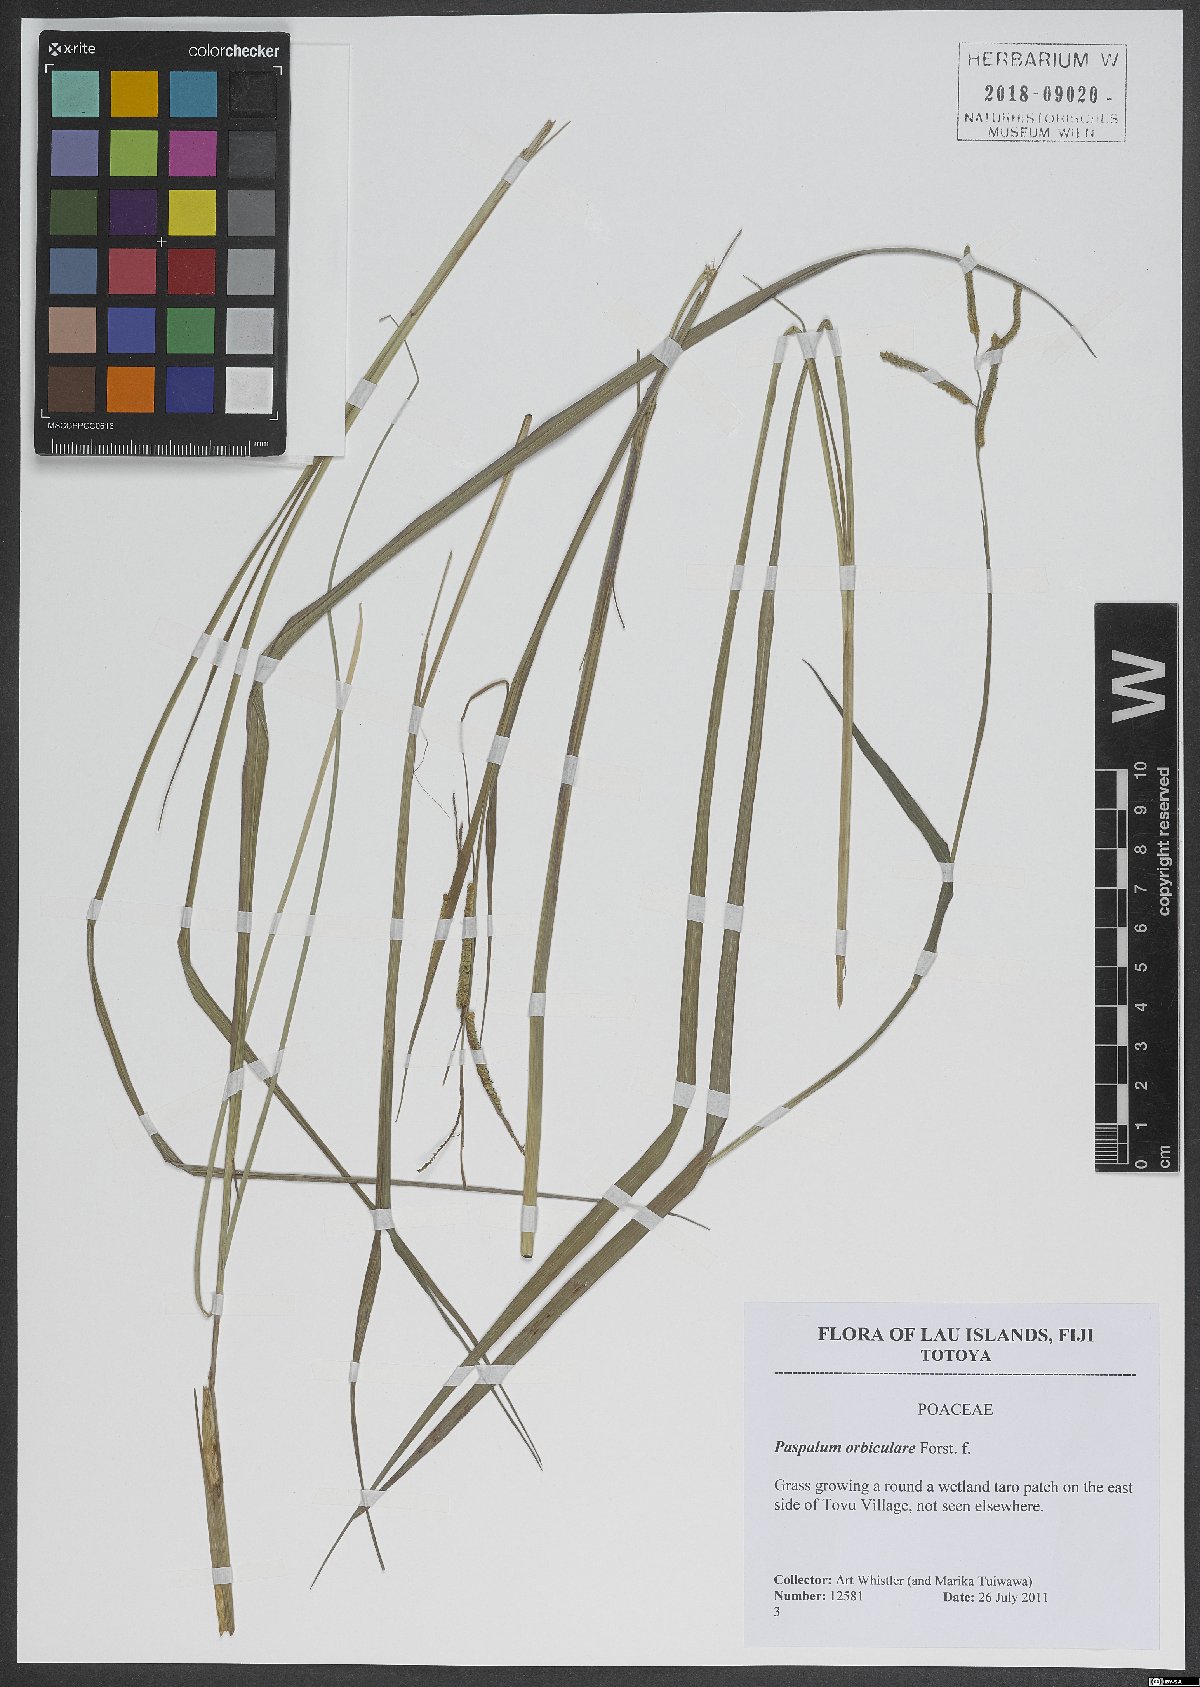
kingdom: Plantae
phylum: Tracheophyta
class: Liliopsida
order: Poales
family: Poaceae
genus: Paspalum
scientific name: Paspalum orbiculare
